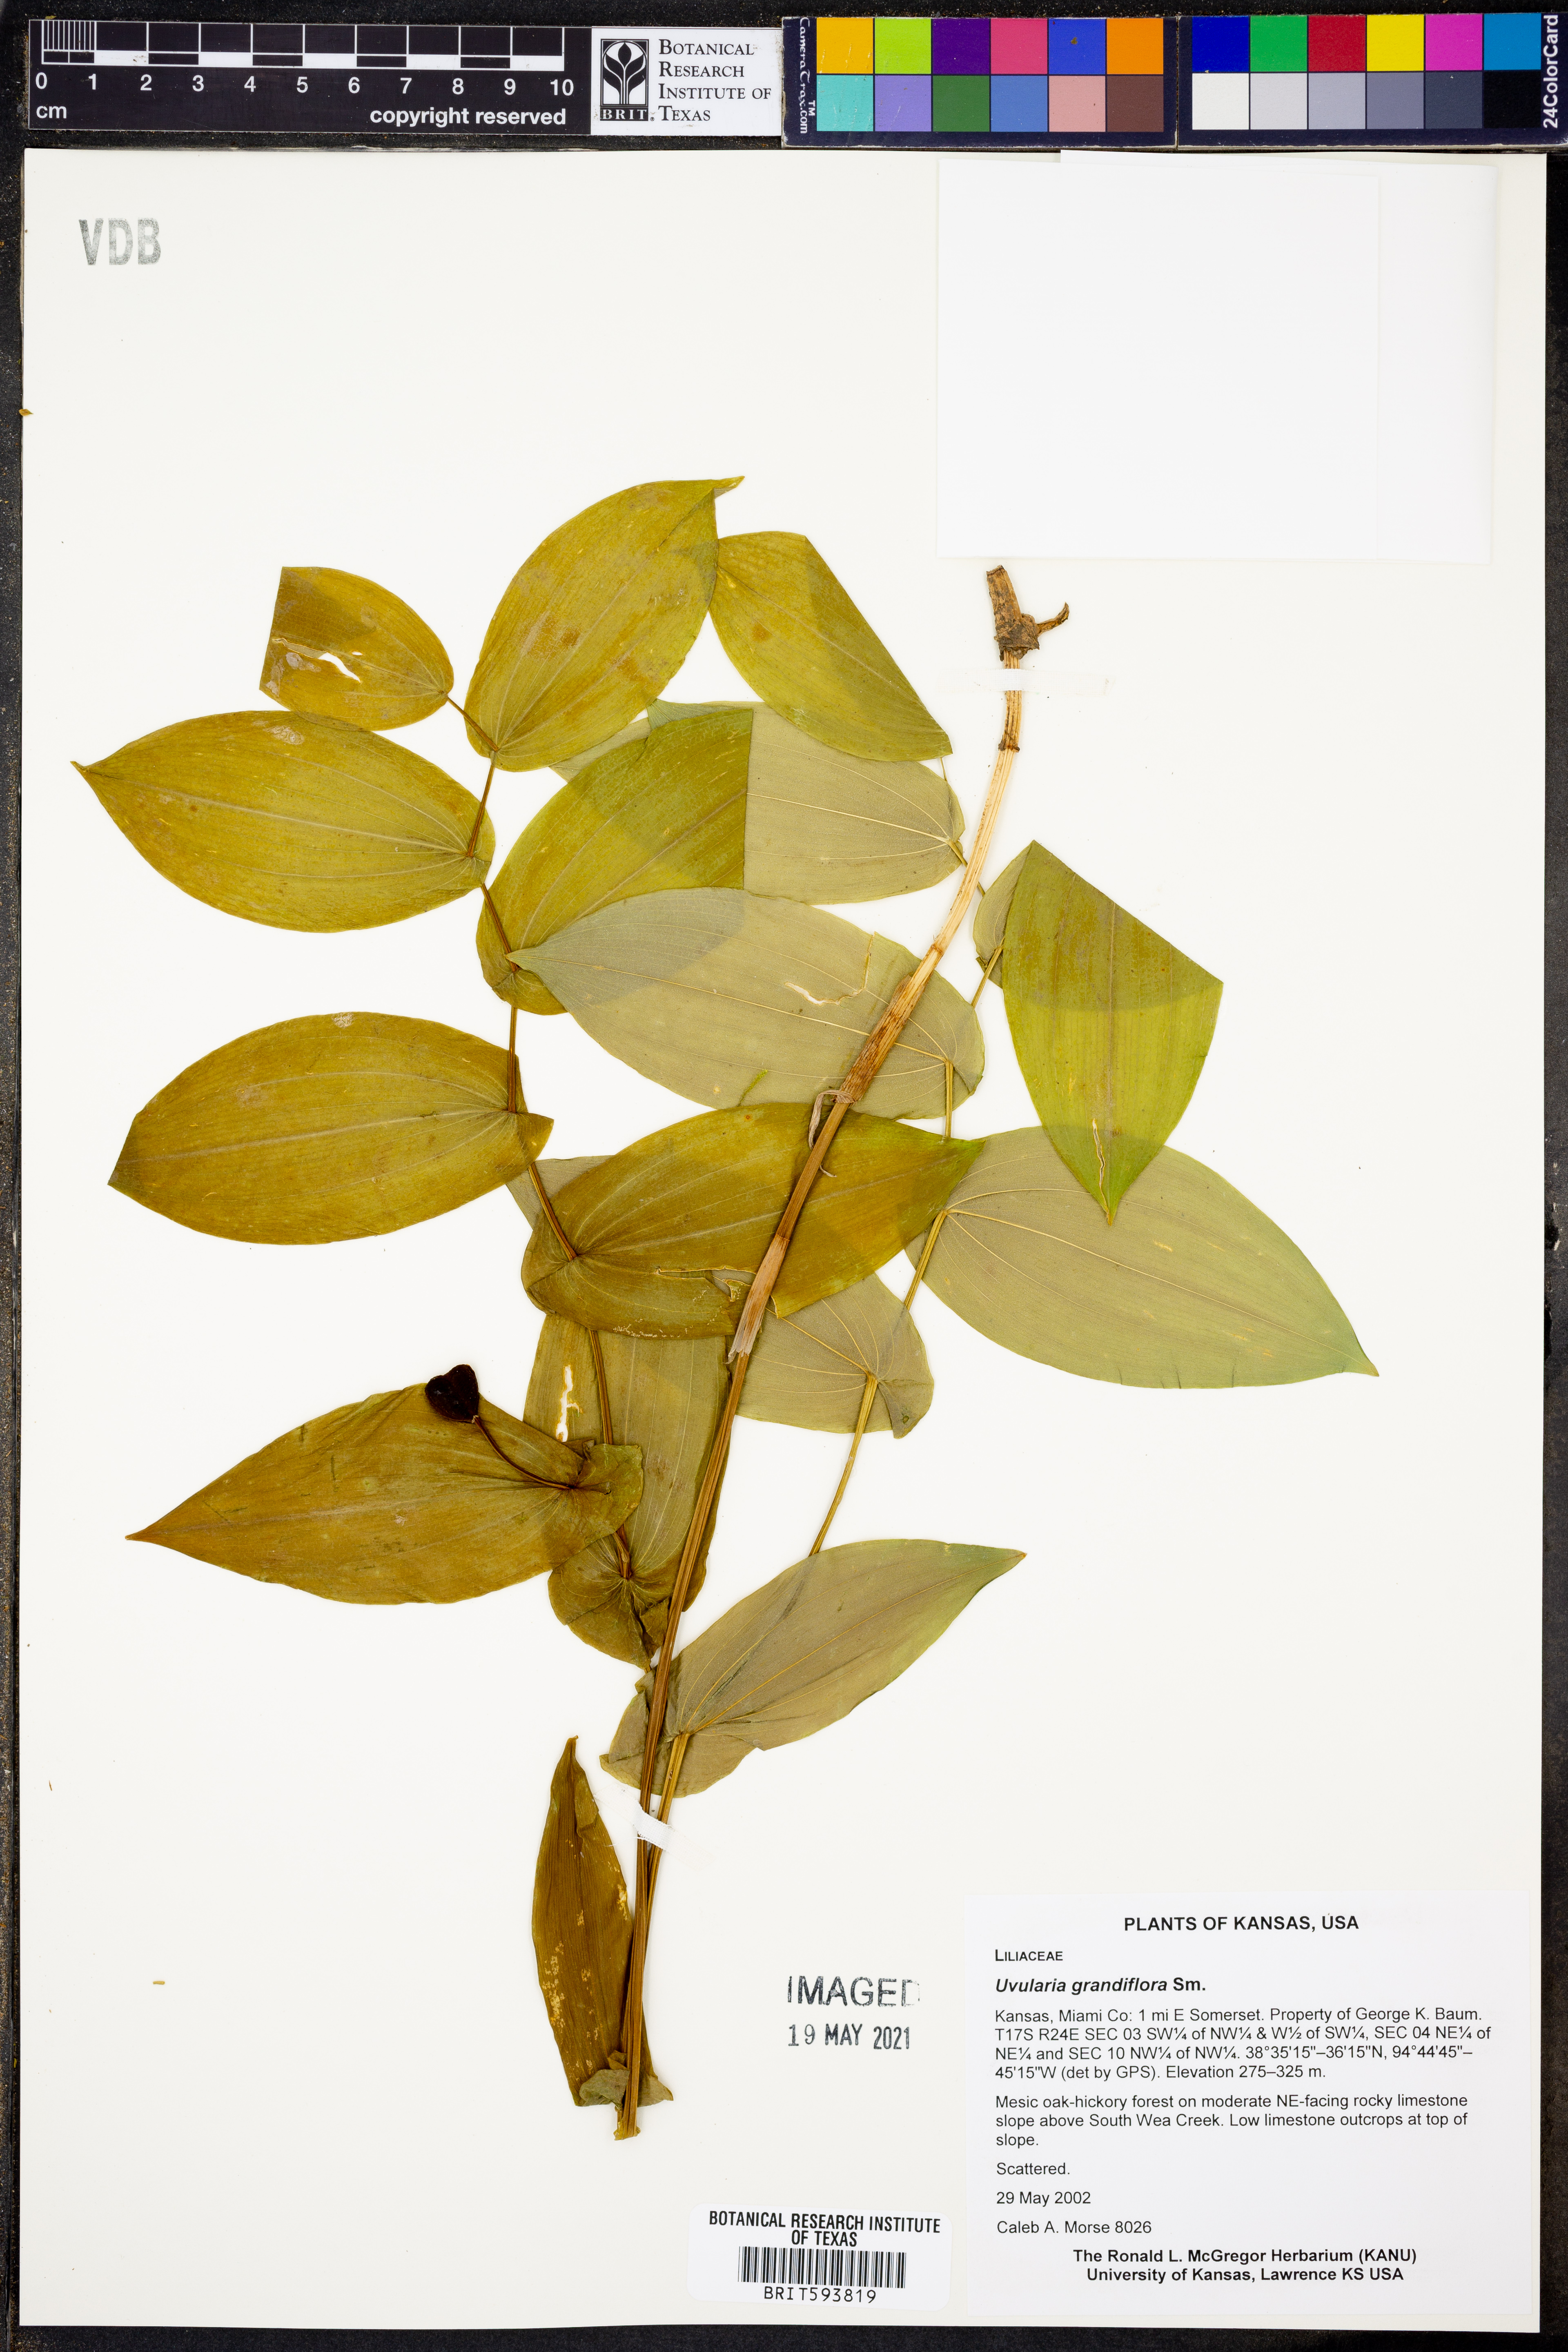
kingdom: Plantae
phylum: Tracheophyta
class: Liliopsida
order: Liliales
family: Colchicaceae
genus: Uvularia
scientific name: Uvularia grandiflora
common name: Bellwort
